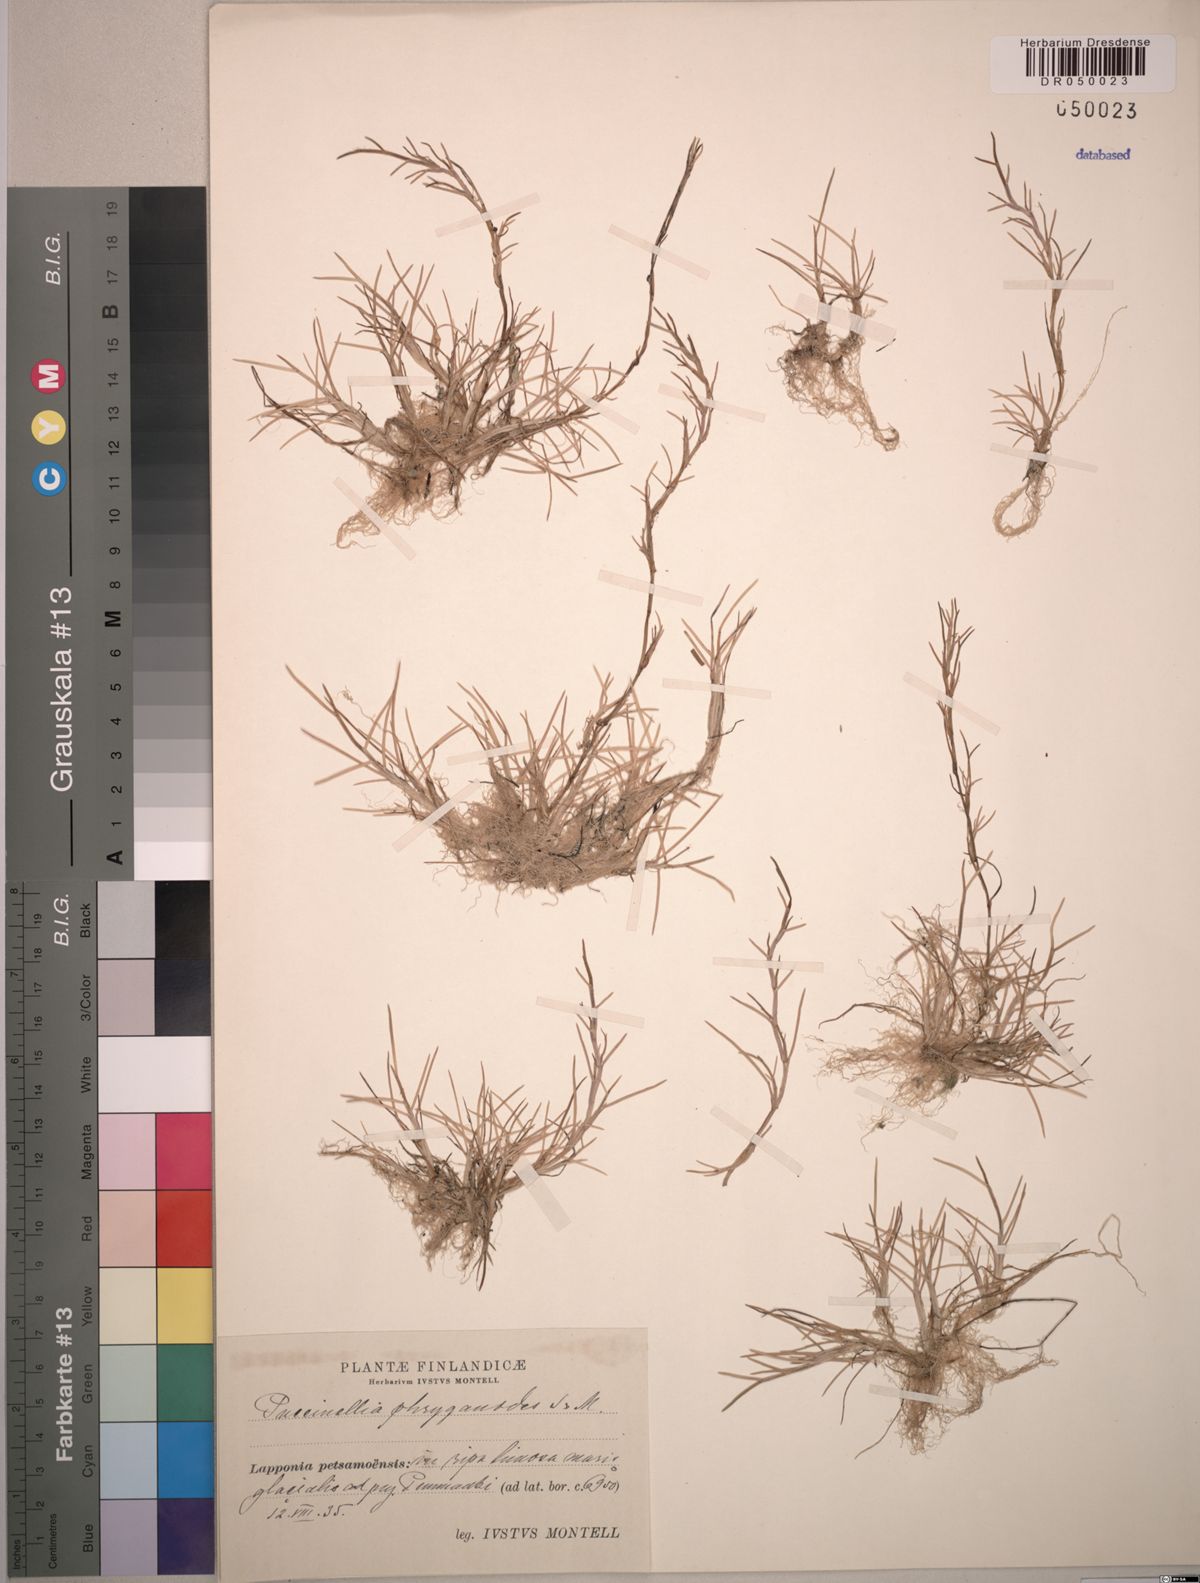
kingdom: Plantae
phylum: Tracheophyta
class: Liliopsida
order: Poales
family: Poaceae
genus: Puccinellia
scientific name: Puccinellia phryganodes
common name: Creeping alkaligrass
